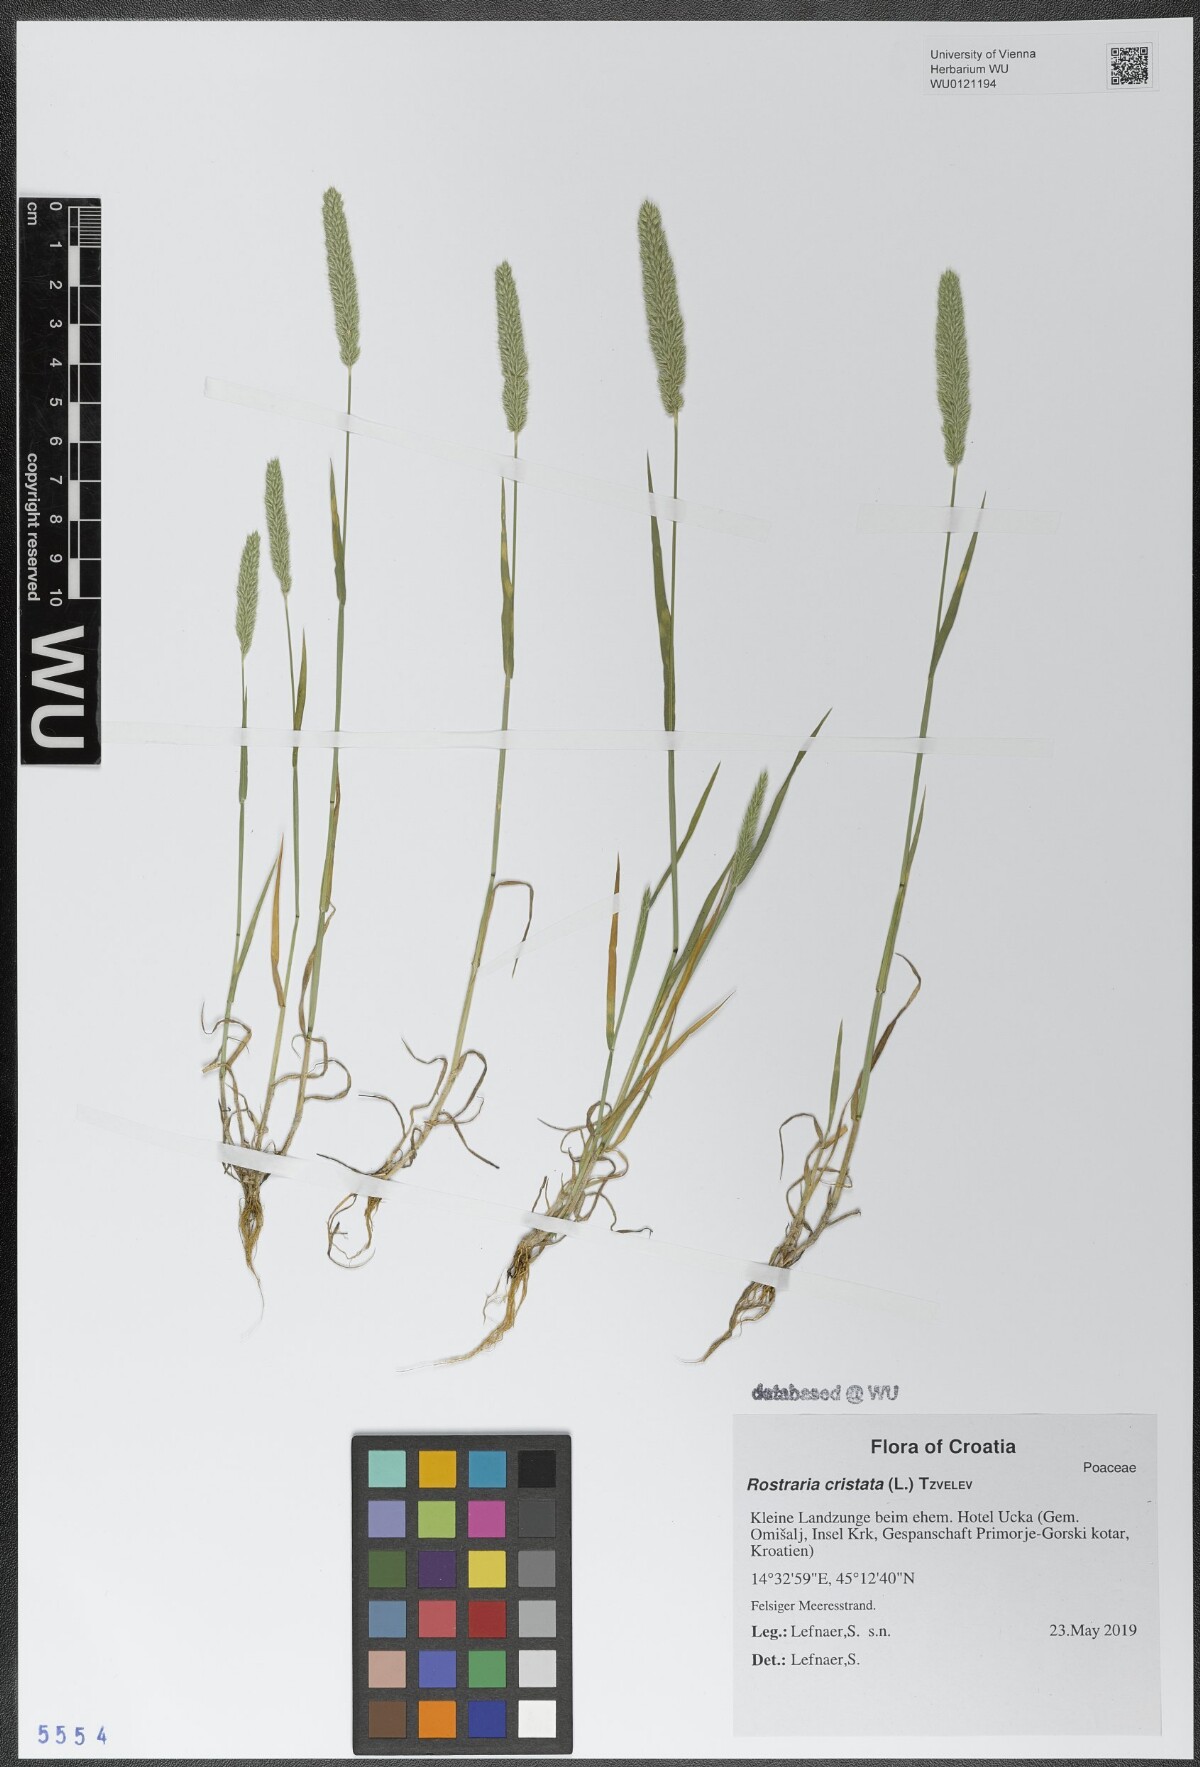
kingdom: Plantae
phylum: Tracheophyta
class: Liliopsida
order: Poales
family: Poaceae
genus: Rostraria
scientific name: Rostraria cristata
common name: Mediterranean hair-grass
